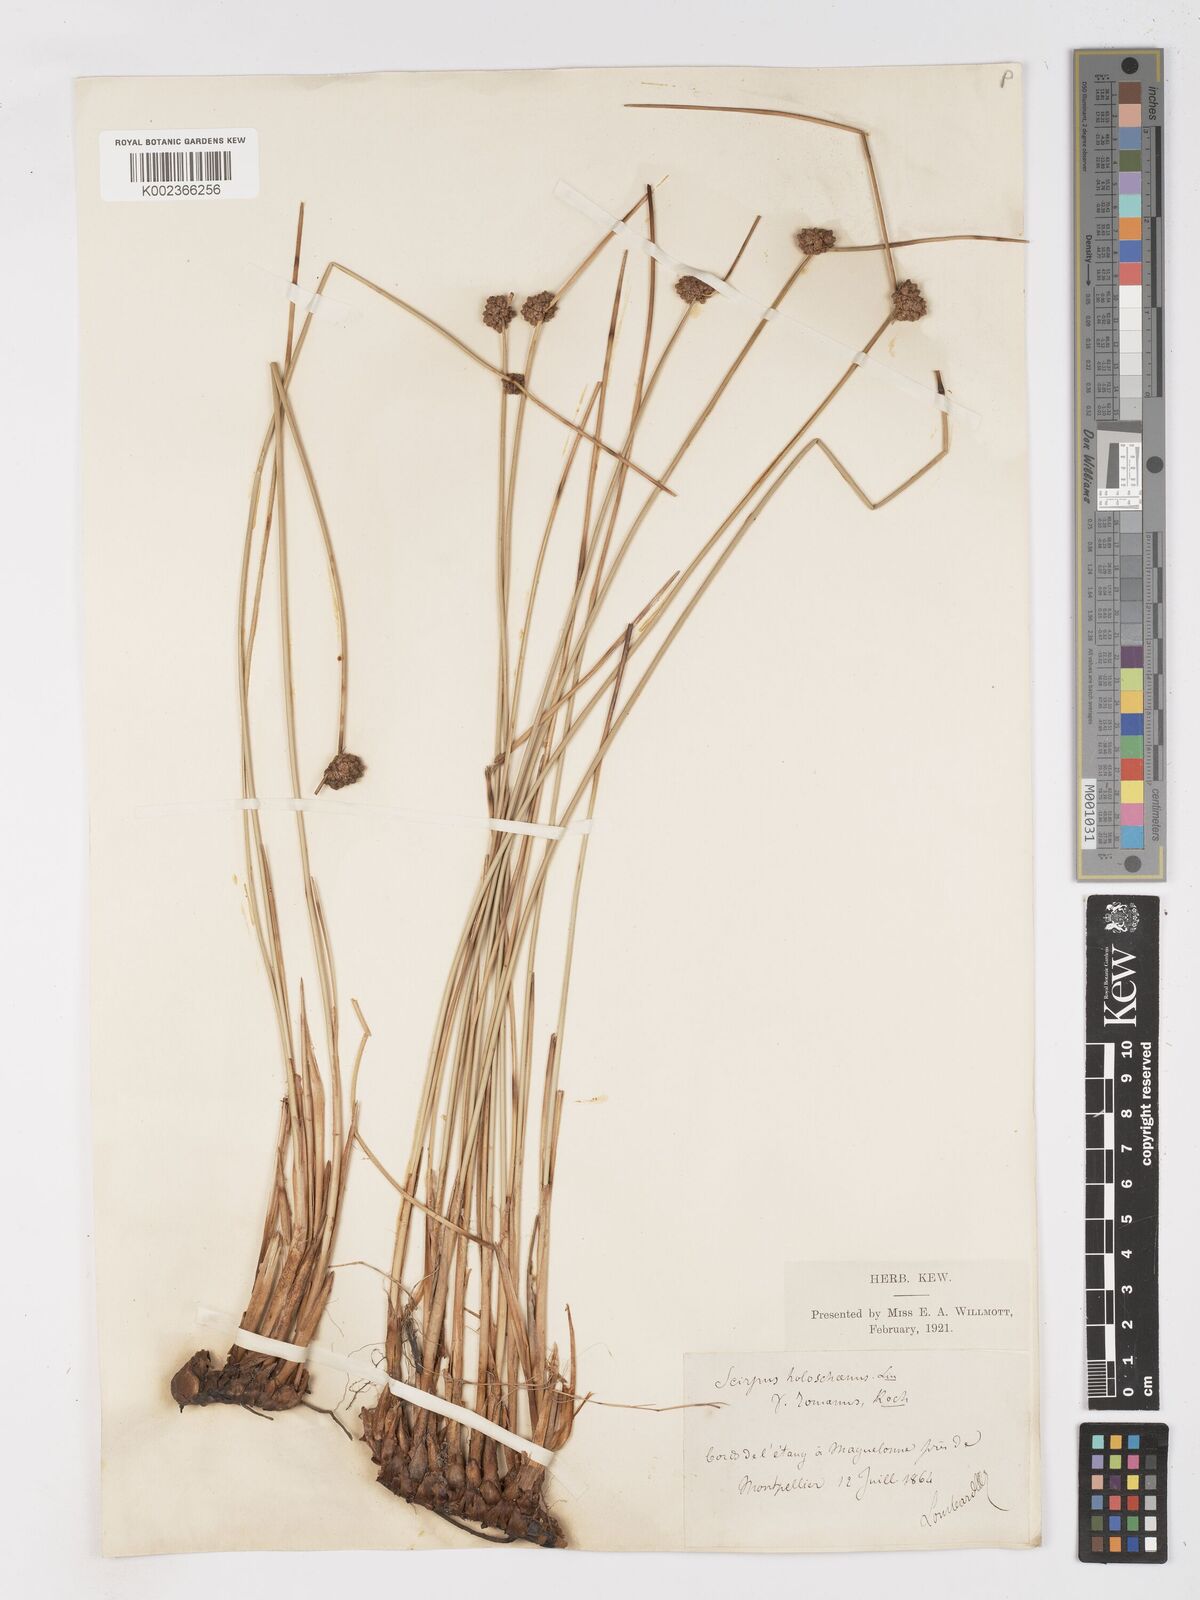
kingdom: Plantae
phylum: Tracheophyta
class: Liliopsida
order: Poales
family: Cyperaceae
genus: Scirpoides
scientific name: Scirpoides holoschoenus
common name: Round-headed club-rush
